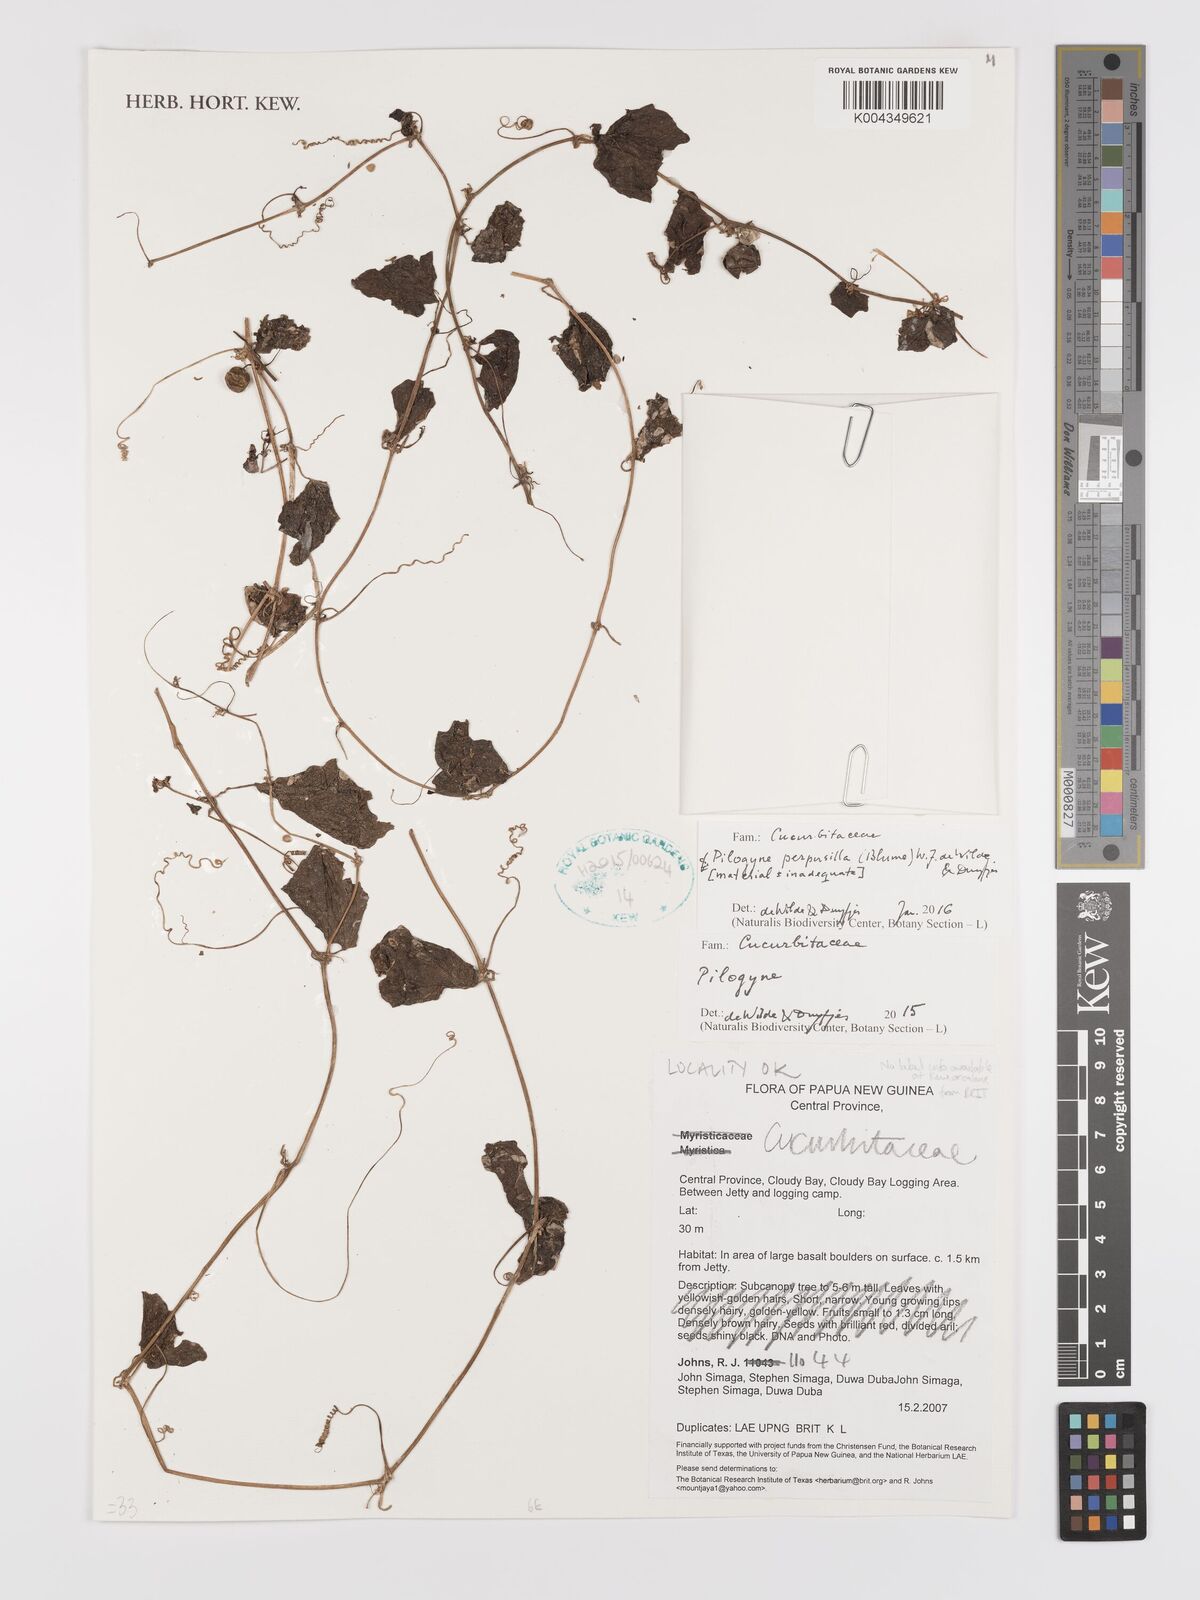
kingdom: Plantae
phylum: Tracheophyta
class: Magnoliopsida
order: Cucurbitales
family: Cucurbitaceae
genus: Zehneria
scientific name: Zehneria
